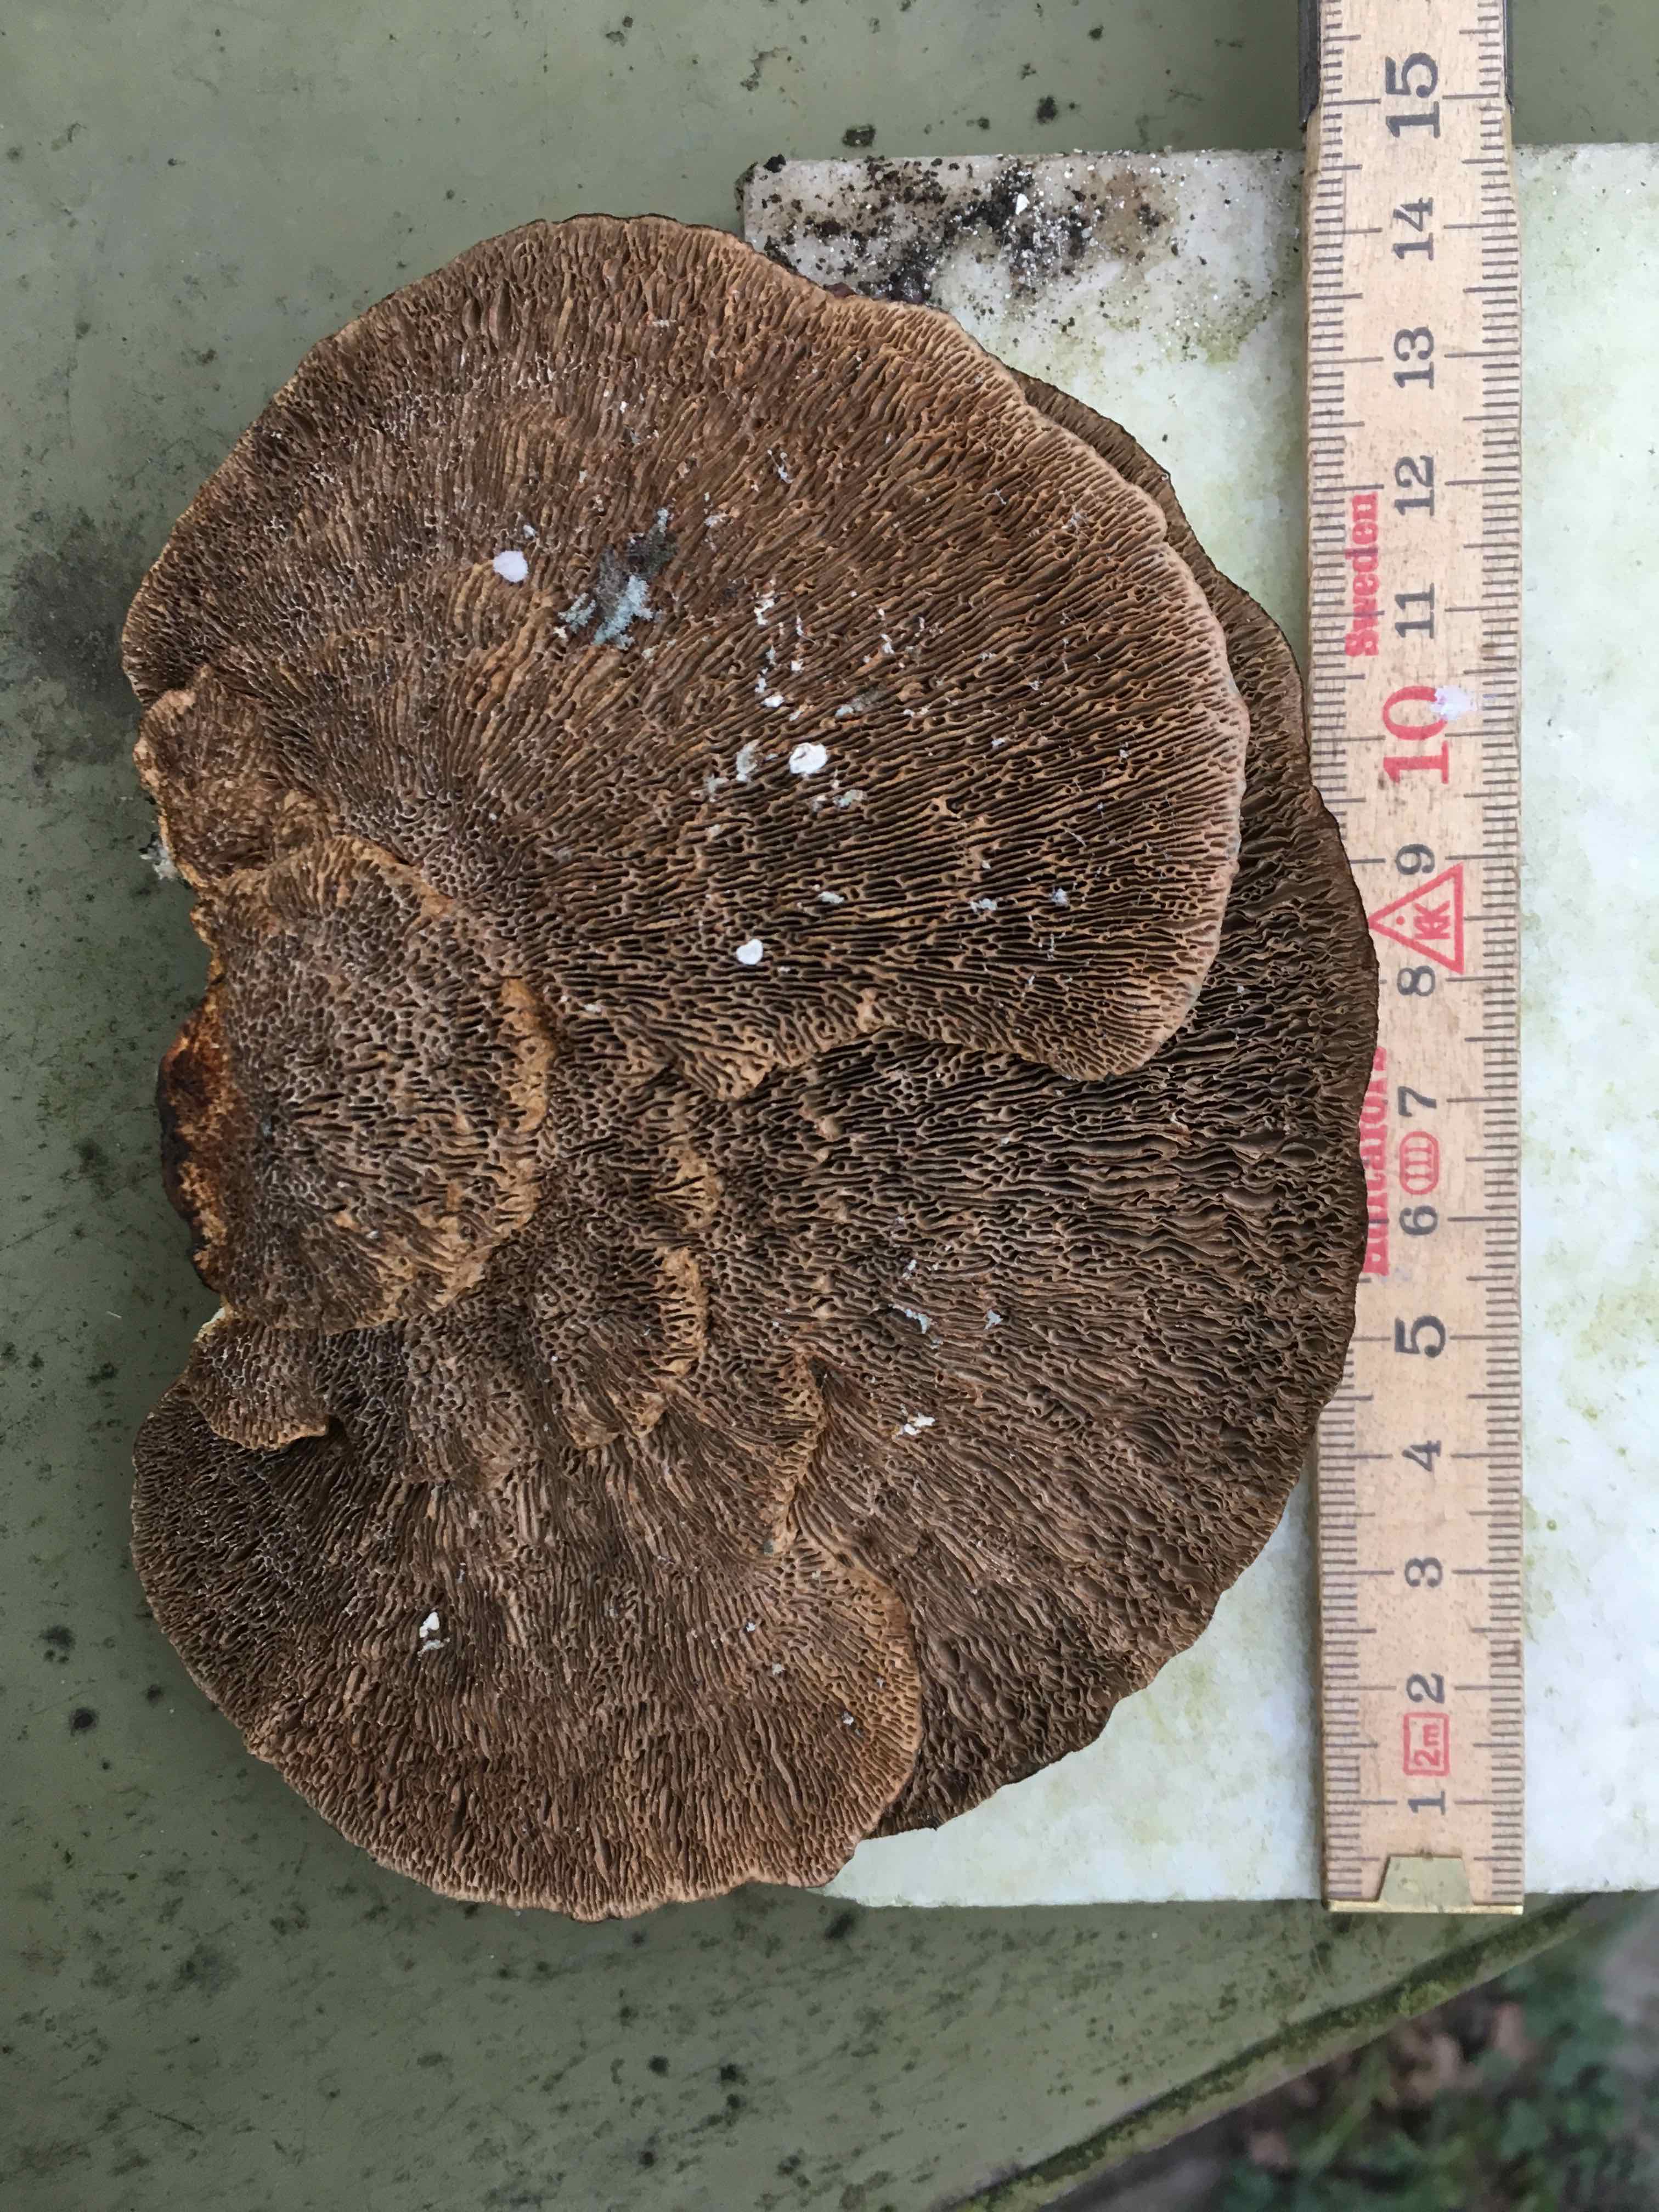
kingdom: Fungi
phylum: Basidiomycota
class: Agaricomycetes
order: Polyporales
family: Polyporaceae
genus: Daedaleopsis
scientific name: Daedaleopsis confragosa
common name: rødmende læderporesvamp
